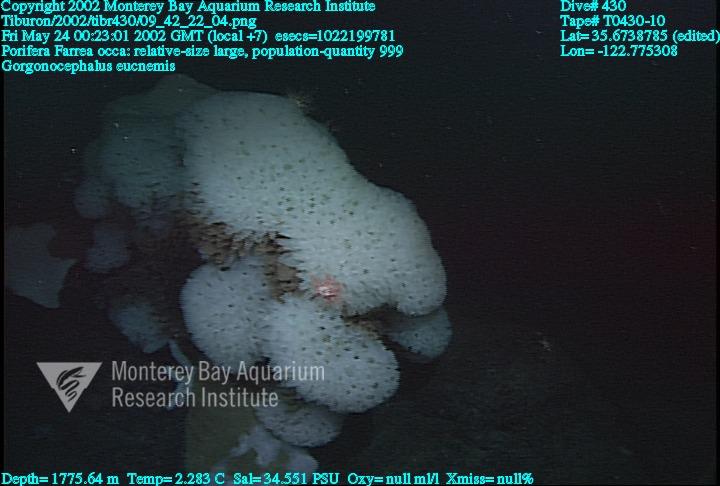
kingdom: Animalia
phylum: Porifera
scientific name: Porifera
